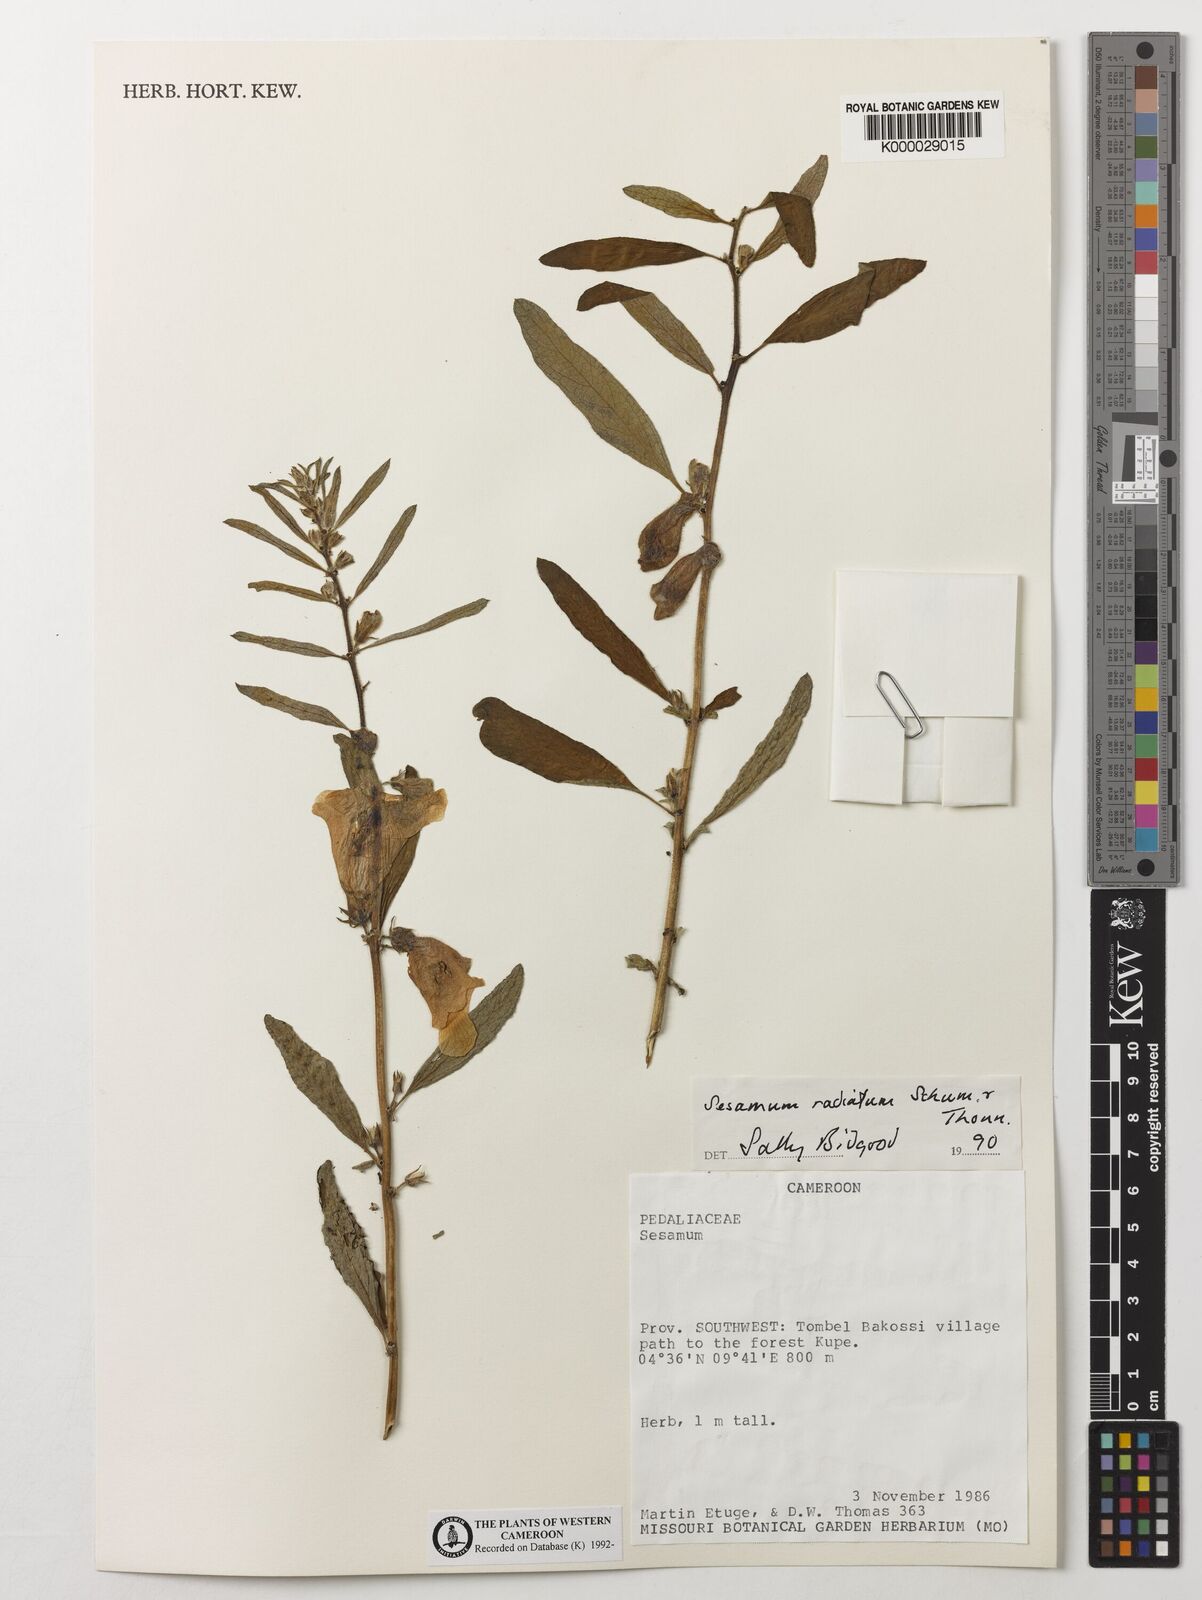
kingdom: Plantae
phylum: Tracheophyta
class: Magnoliopsida
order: Lamiales
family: Pedaliaceae
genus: Sesamum
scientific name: Sesamum
